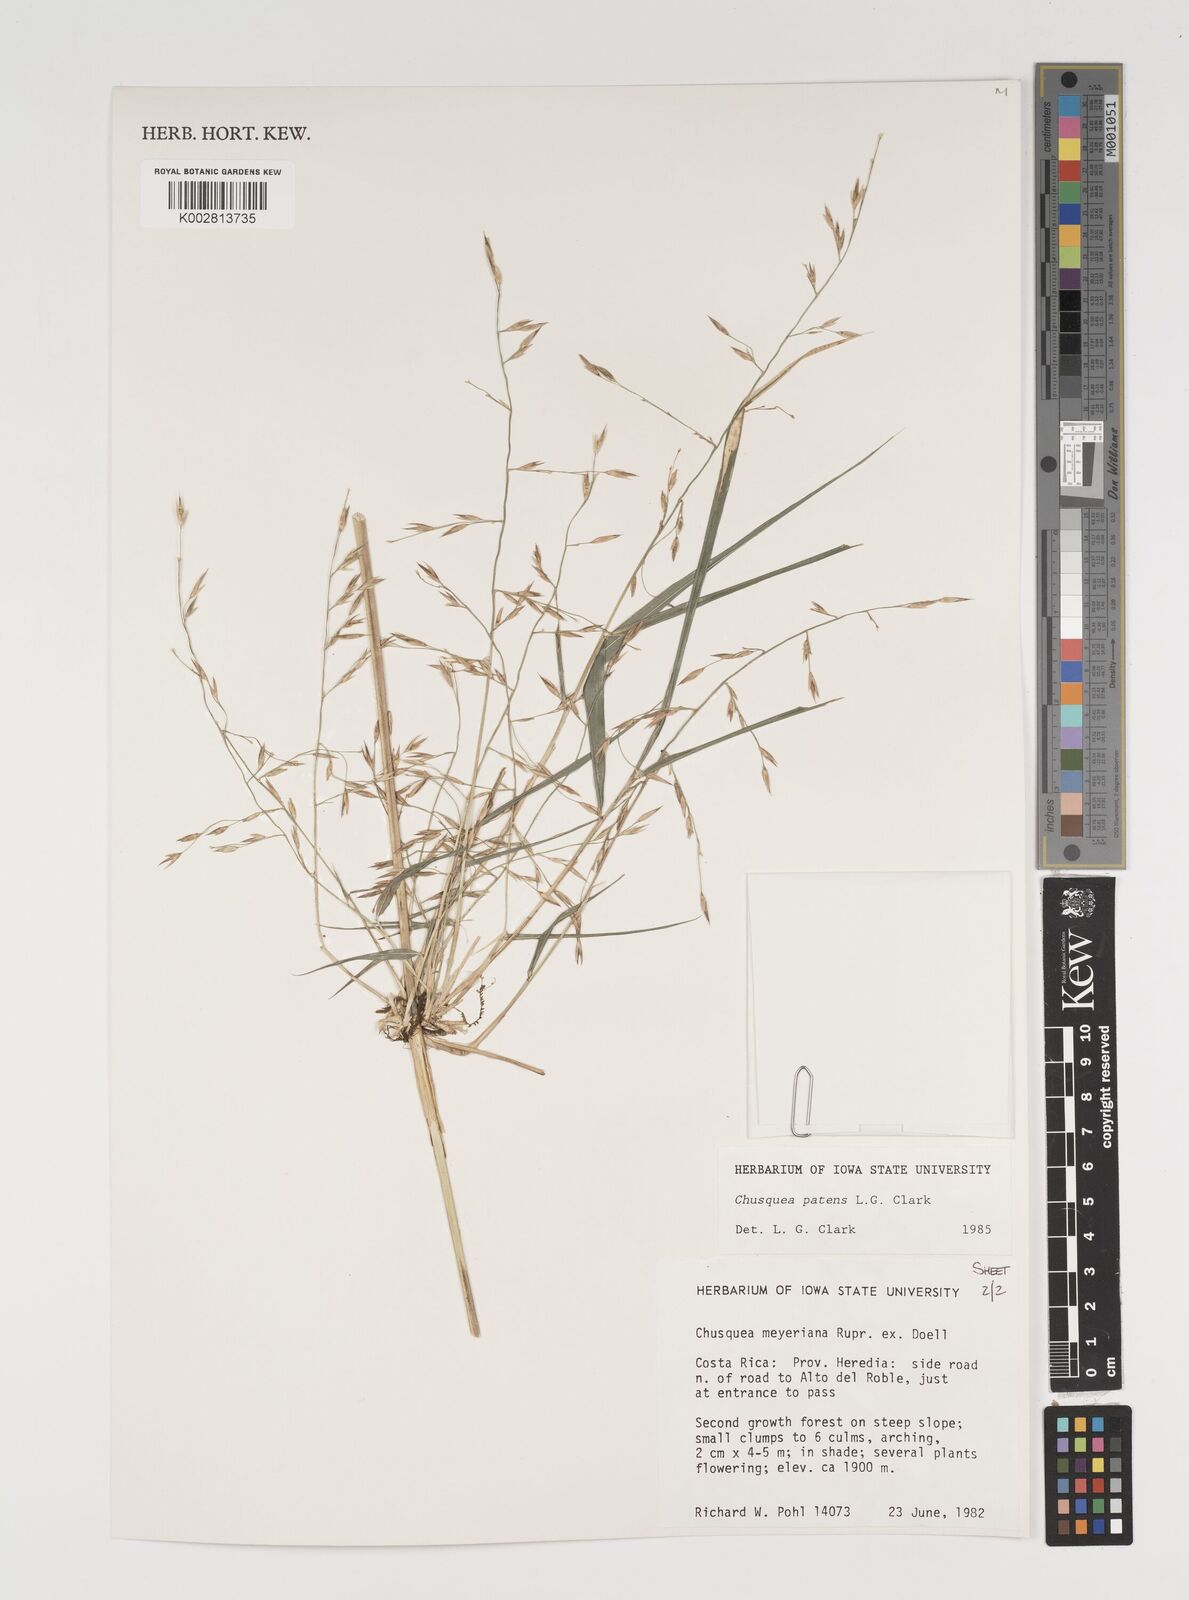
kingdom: Plantae
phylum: Tracheophyta
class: Liliopsida
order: Poales
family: Poaceae
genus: Chusquea
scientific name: Chusquea patens
